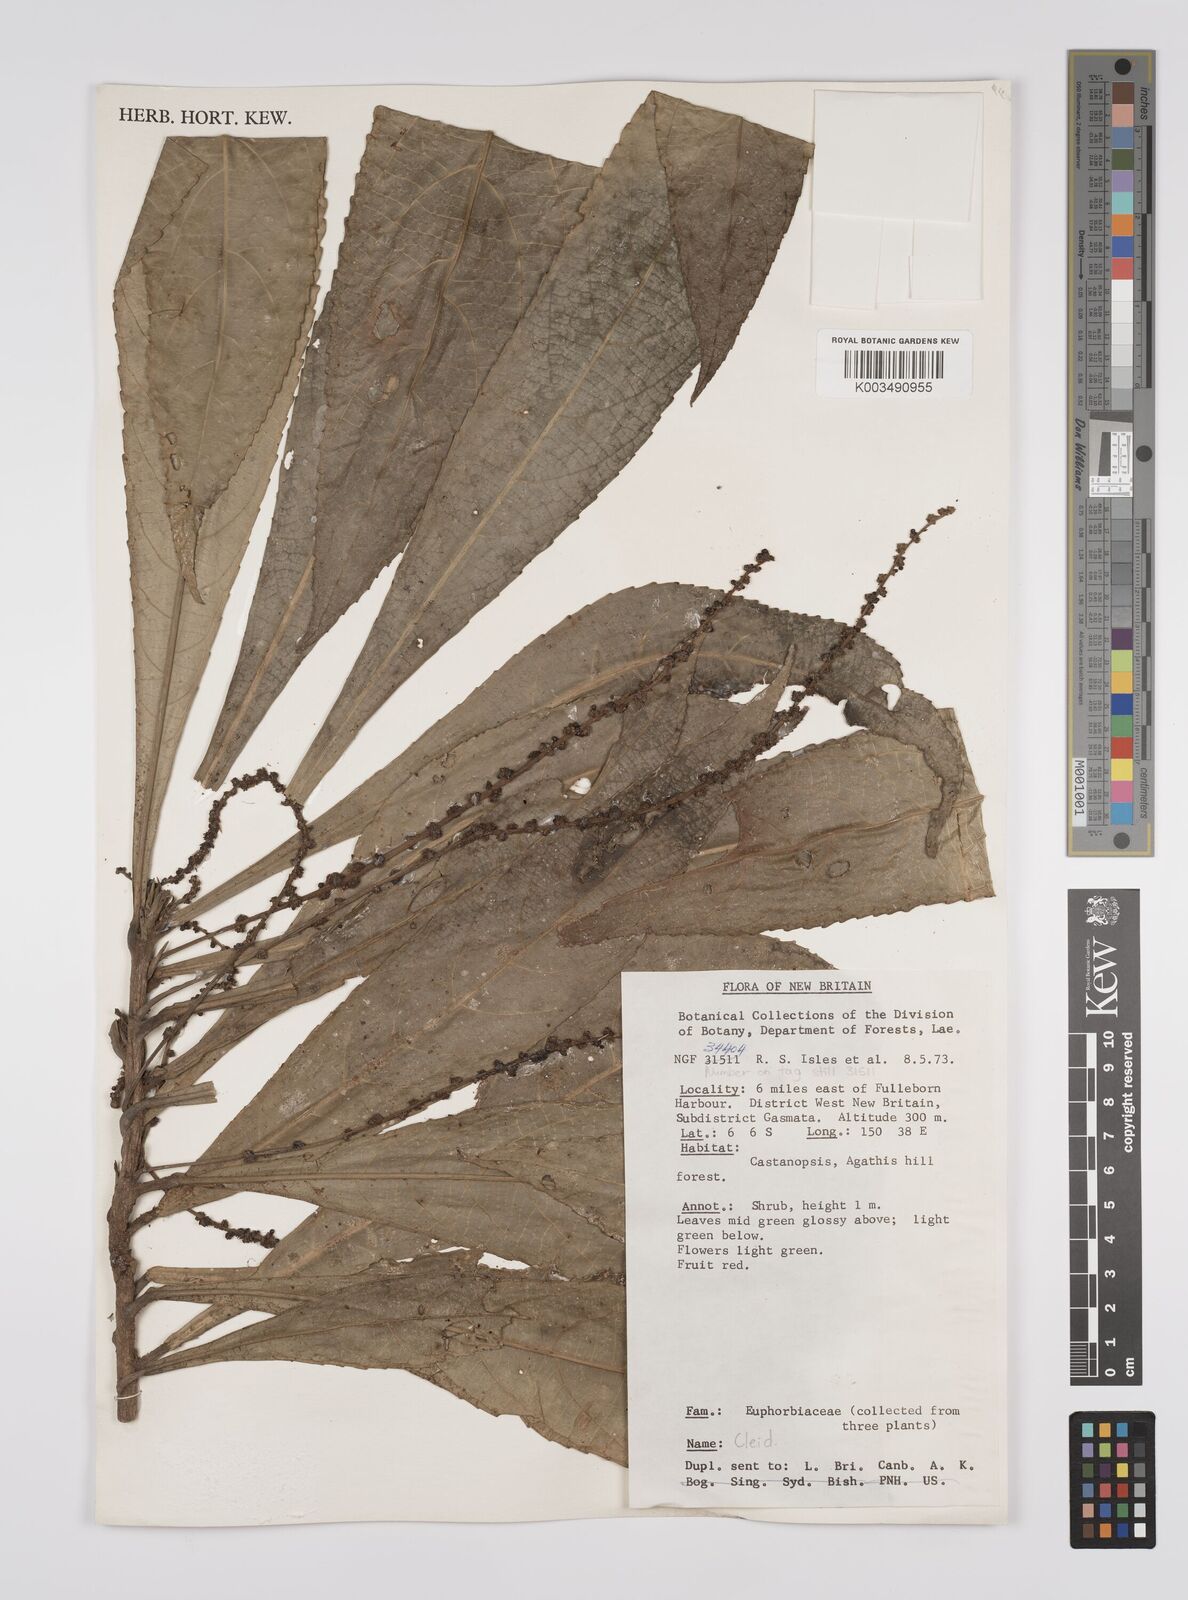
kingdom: Plantae
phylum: Tracheophyta
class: Magnoliopsida
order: Malpighiales
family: Euphorbiaceae
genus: Cleidion
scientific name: Cleidion papuanum
